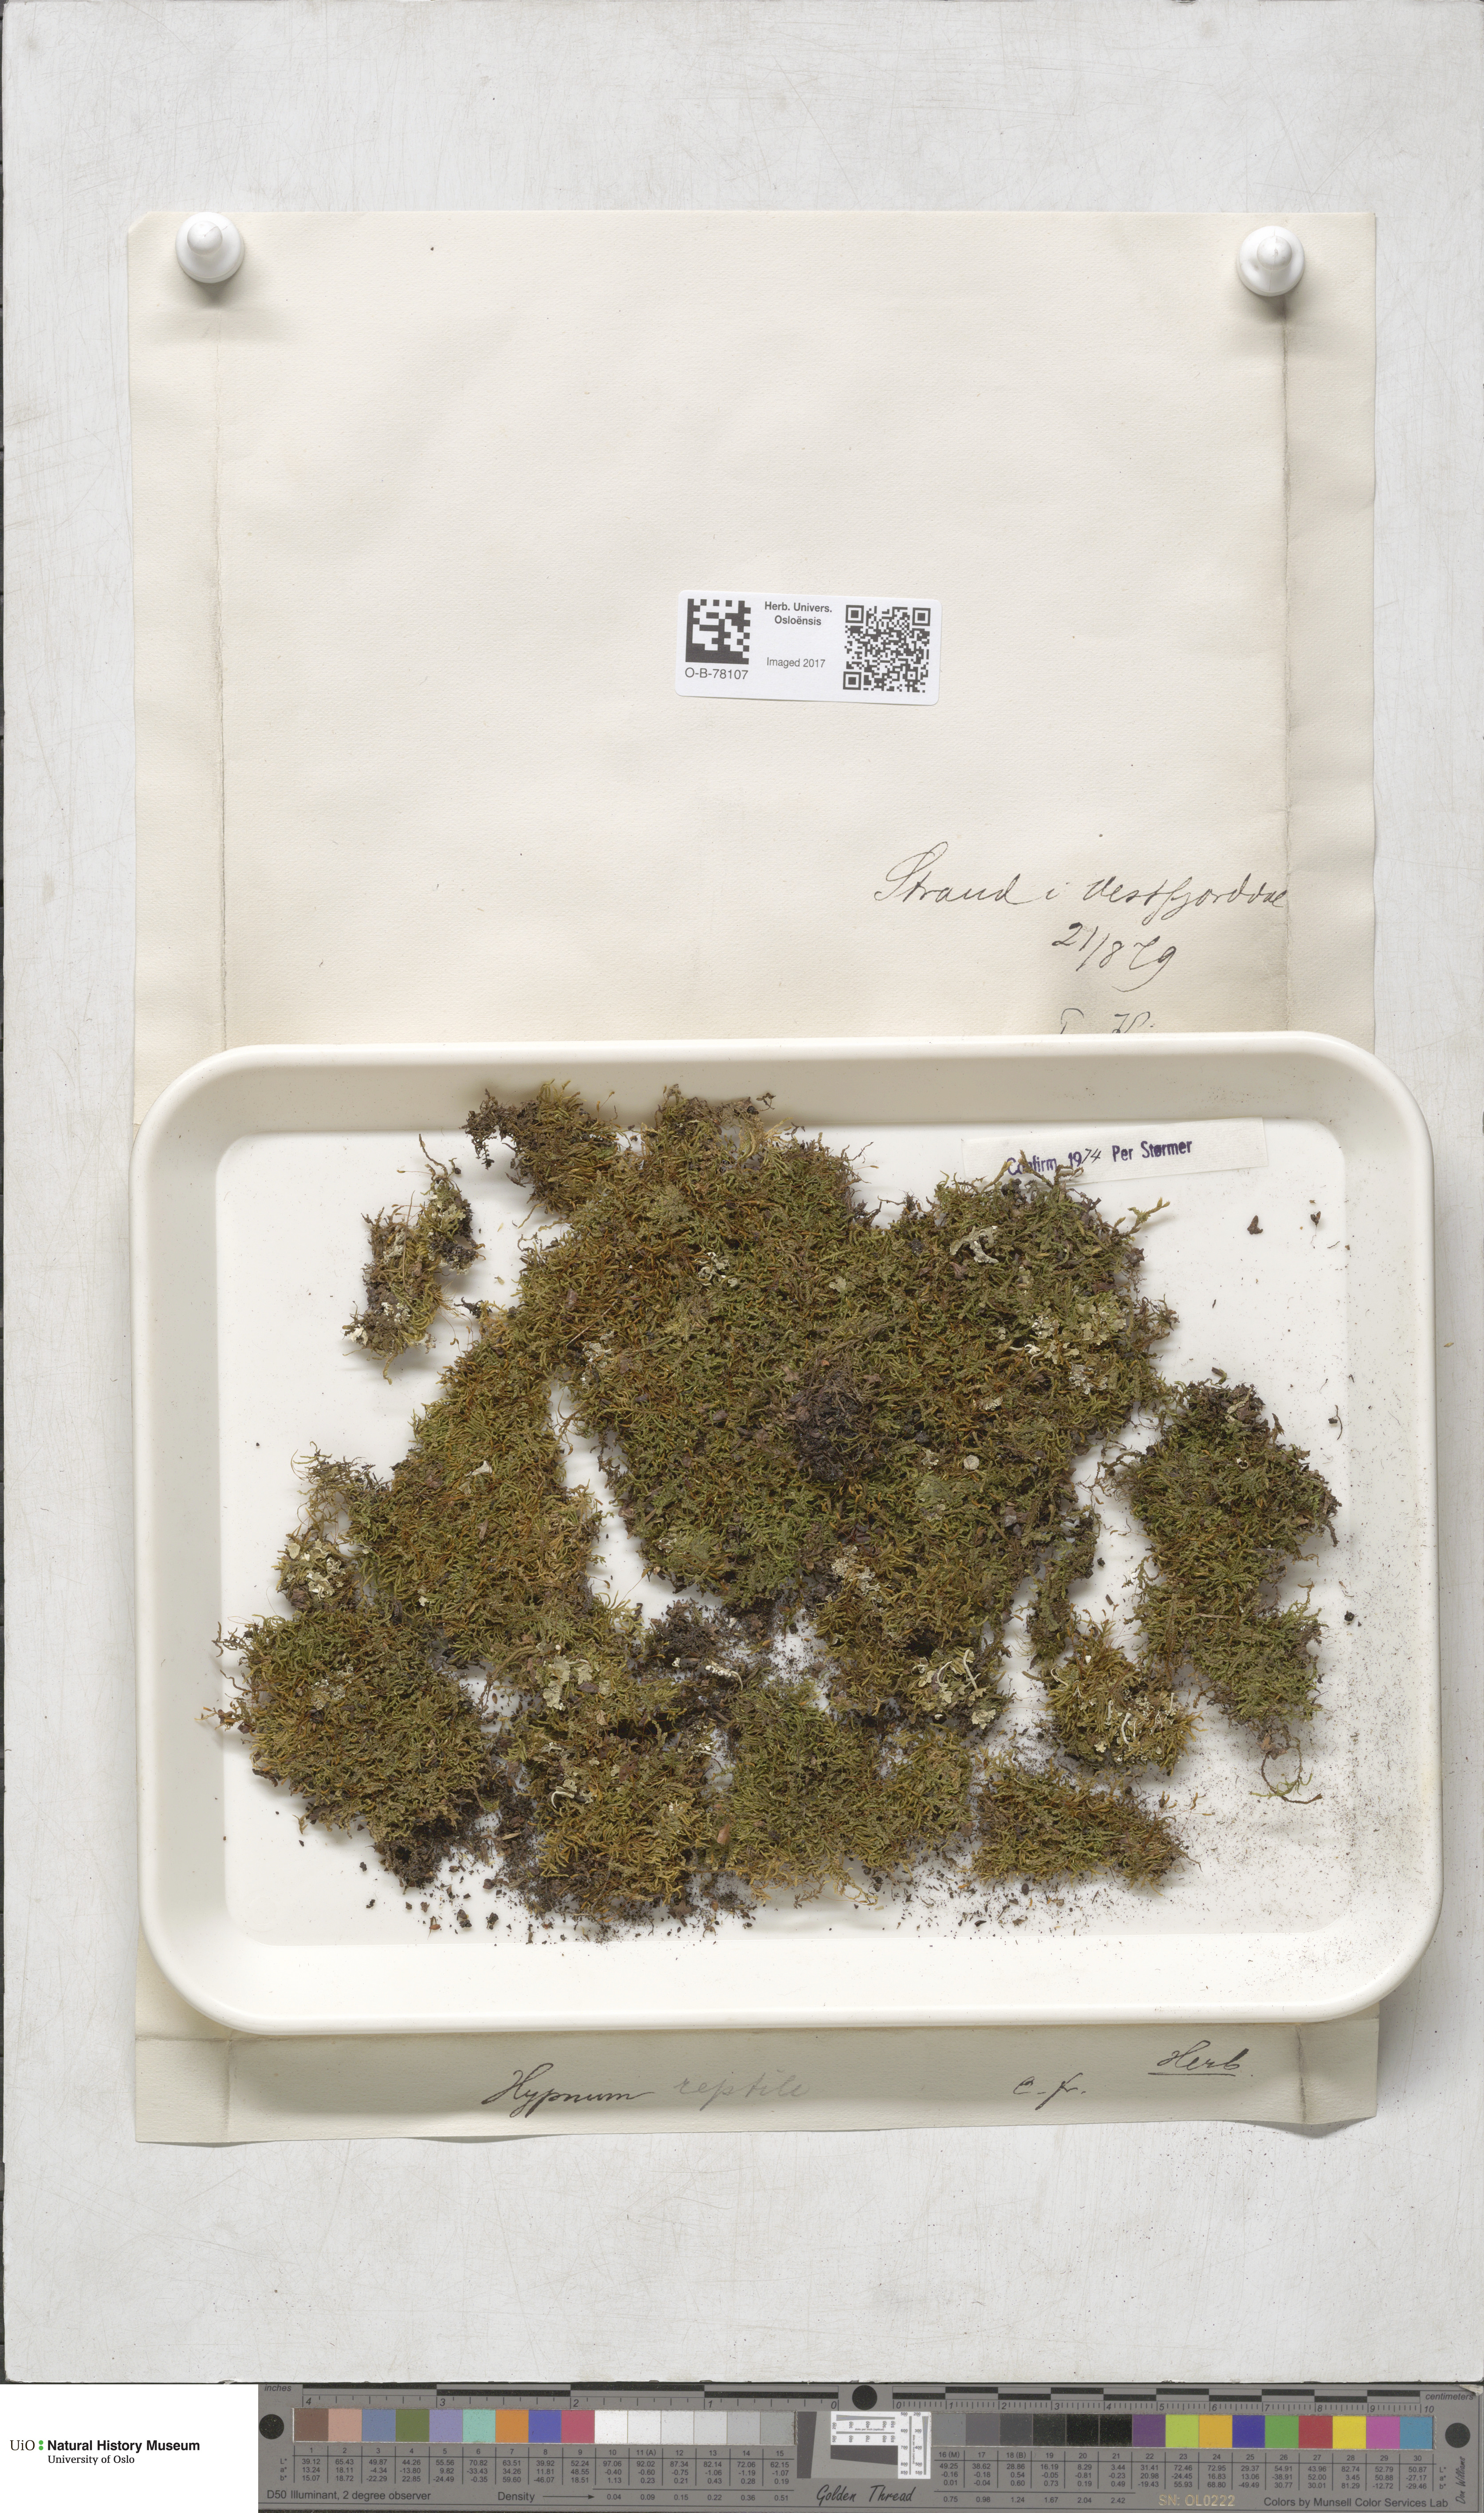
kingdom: Plantae
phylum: Bryophyta
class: Bryopsida
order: Hypnales
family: Jocheniaceae
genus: Jochenia
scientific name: Jochenia pallescens
